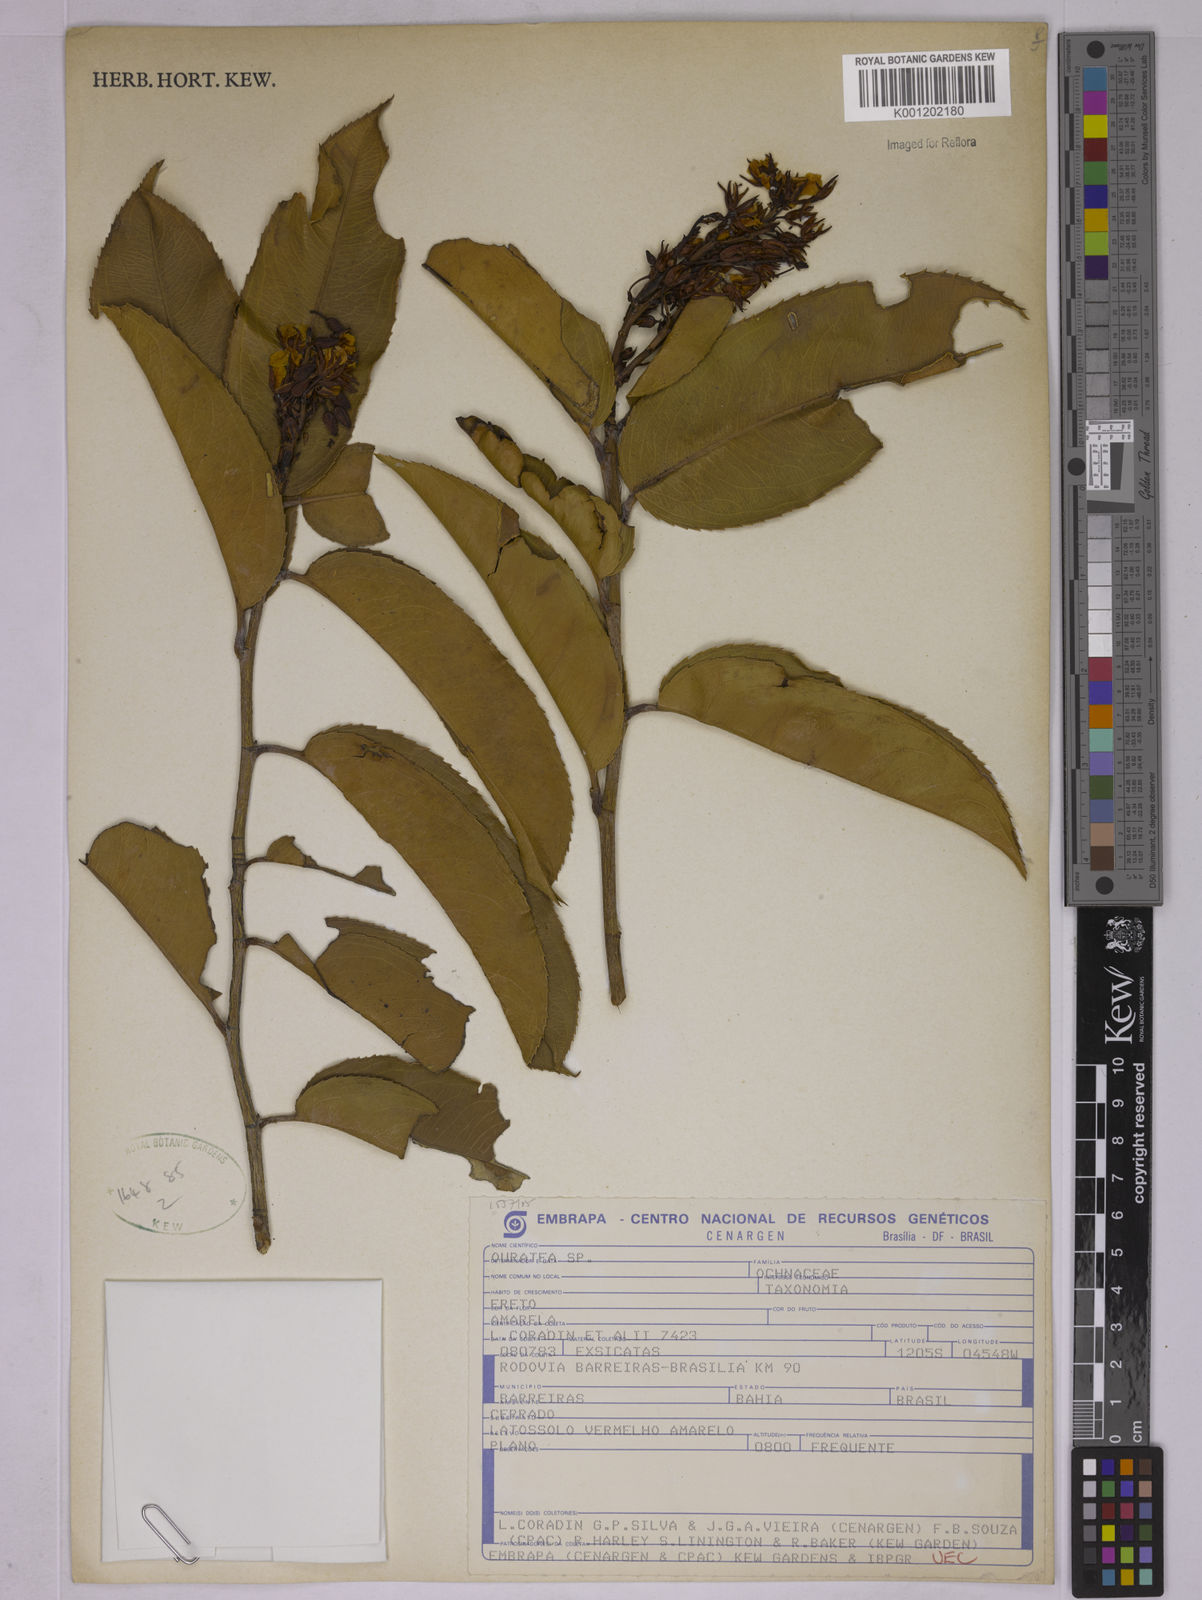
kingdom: Plantae
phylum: Tracheophyta
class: Magnoliopsida
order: Malpighiales
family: Ochnaceae
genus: Ouratea
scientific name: Ouratea
